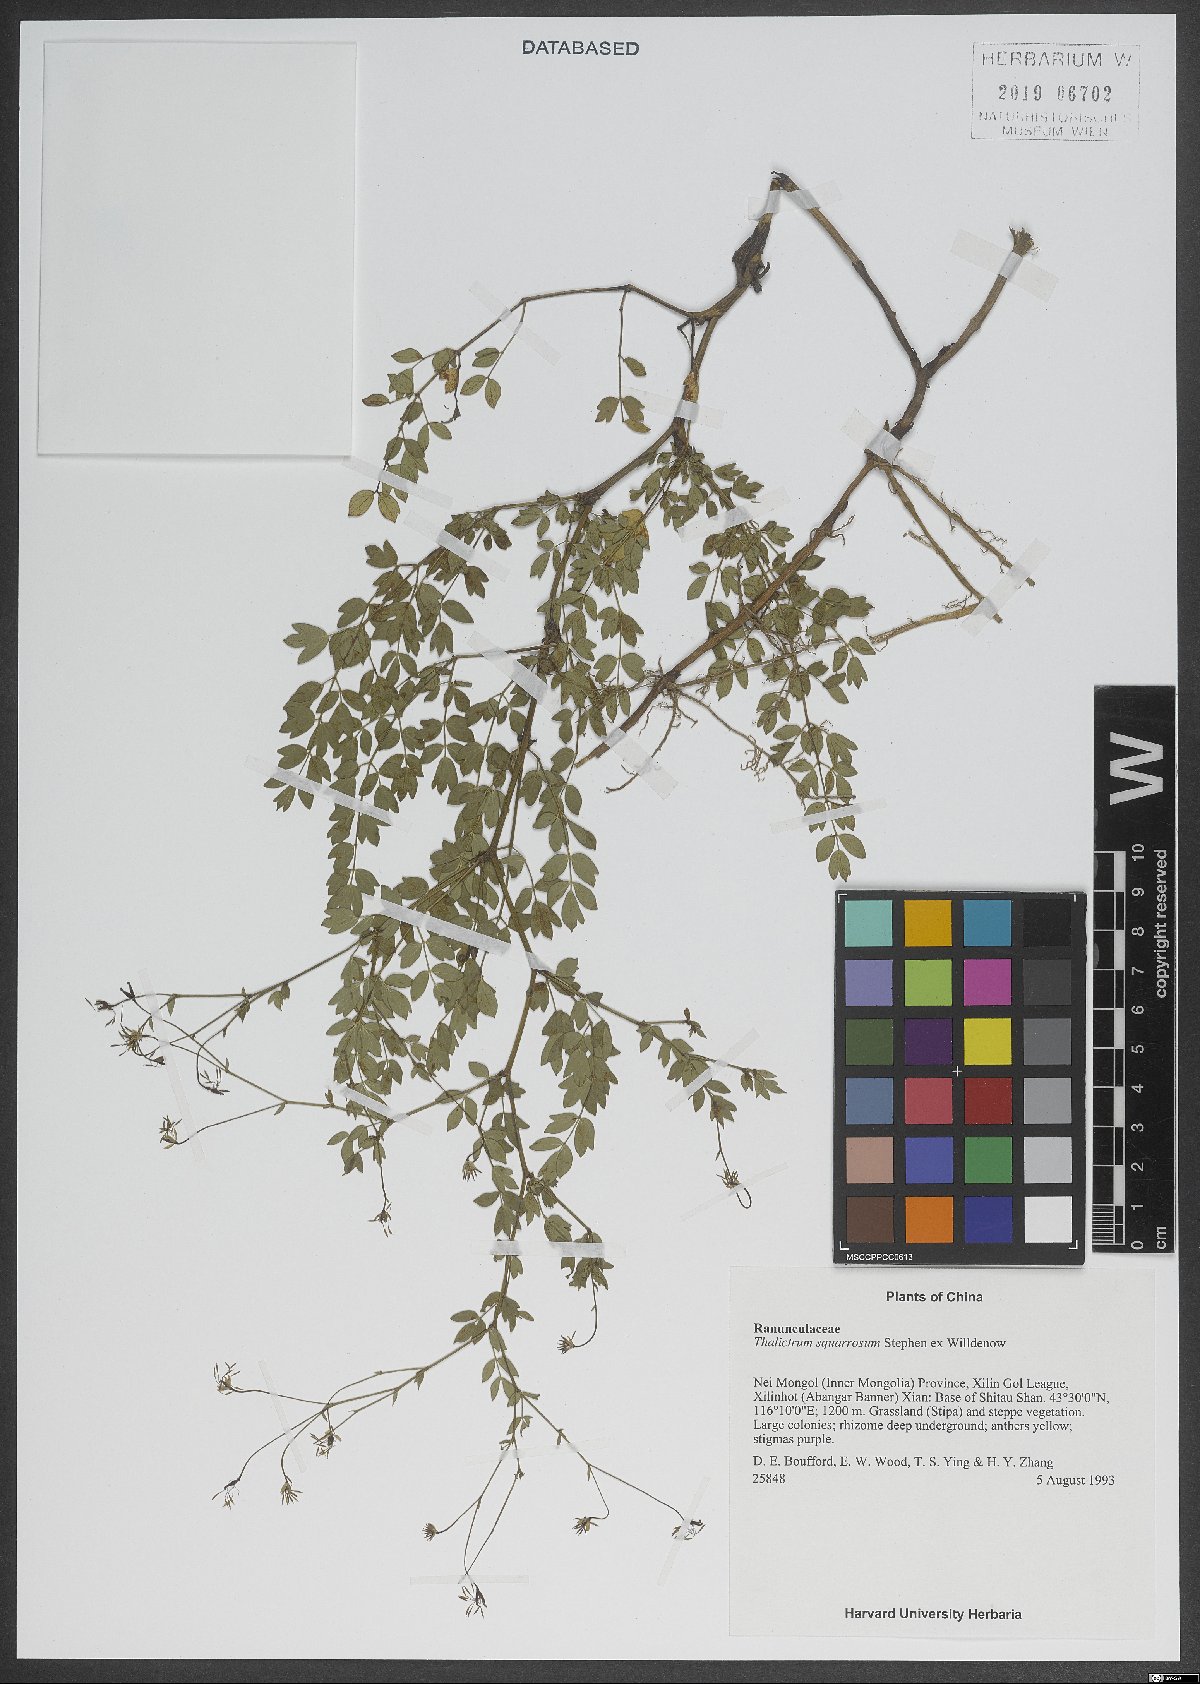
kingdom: Plantae
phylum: Tracheophyta
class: Magnoliopsida
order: Ranunculales
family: Ranunculaceae
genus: Thalictrum
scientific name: Thalictrum squarrosum
